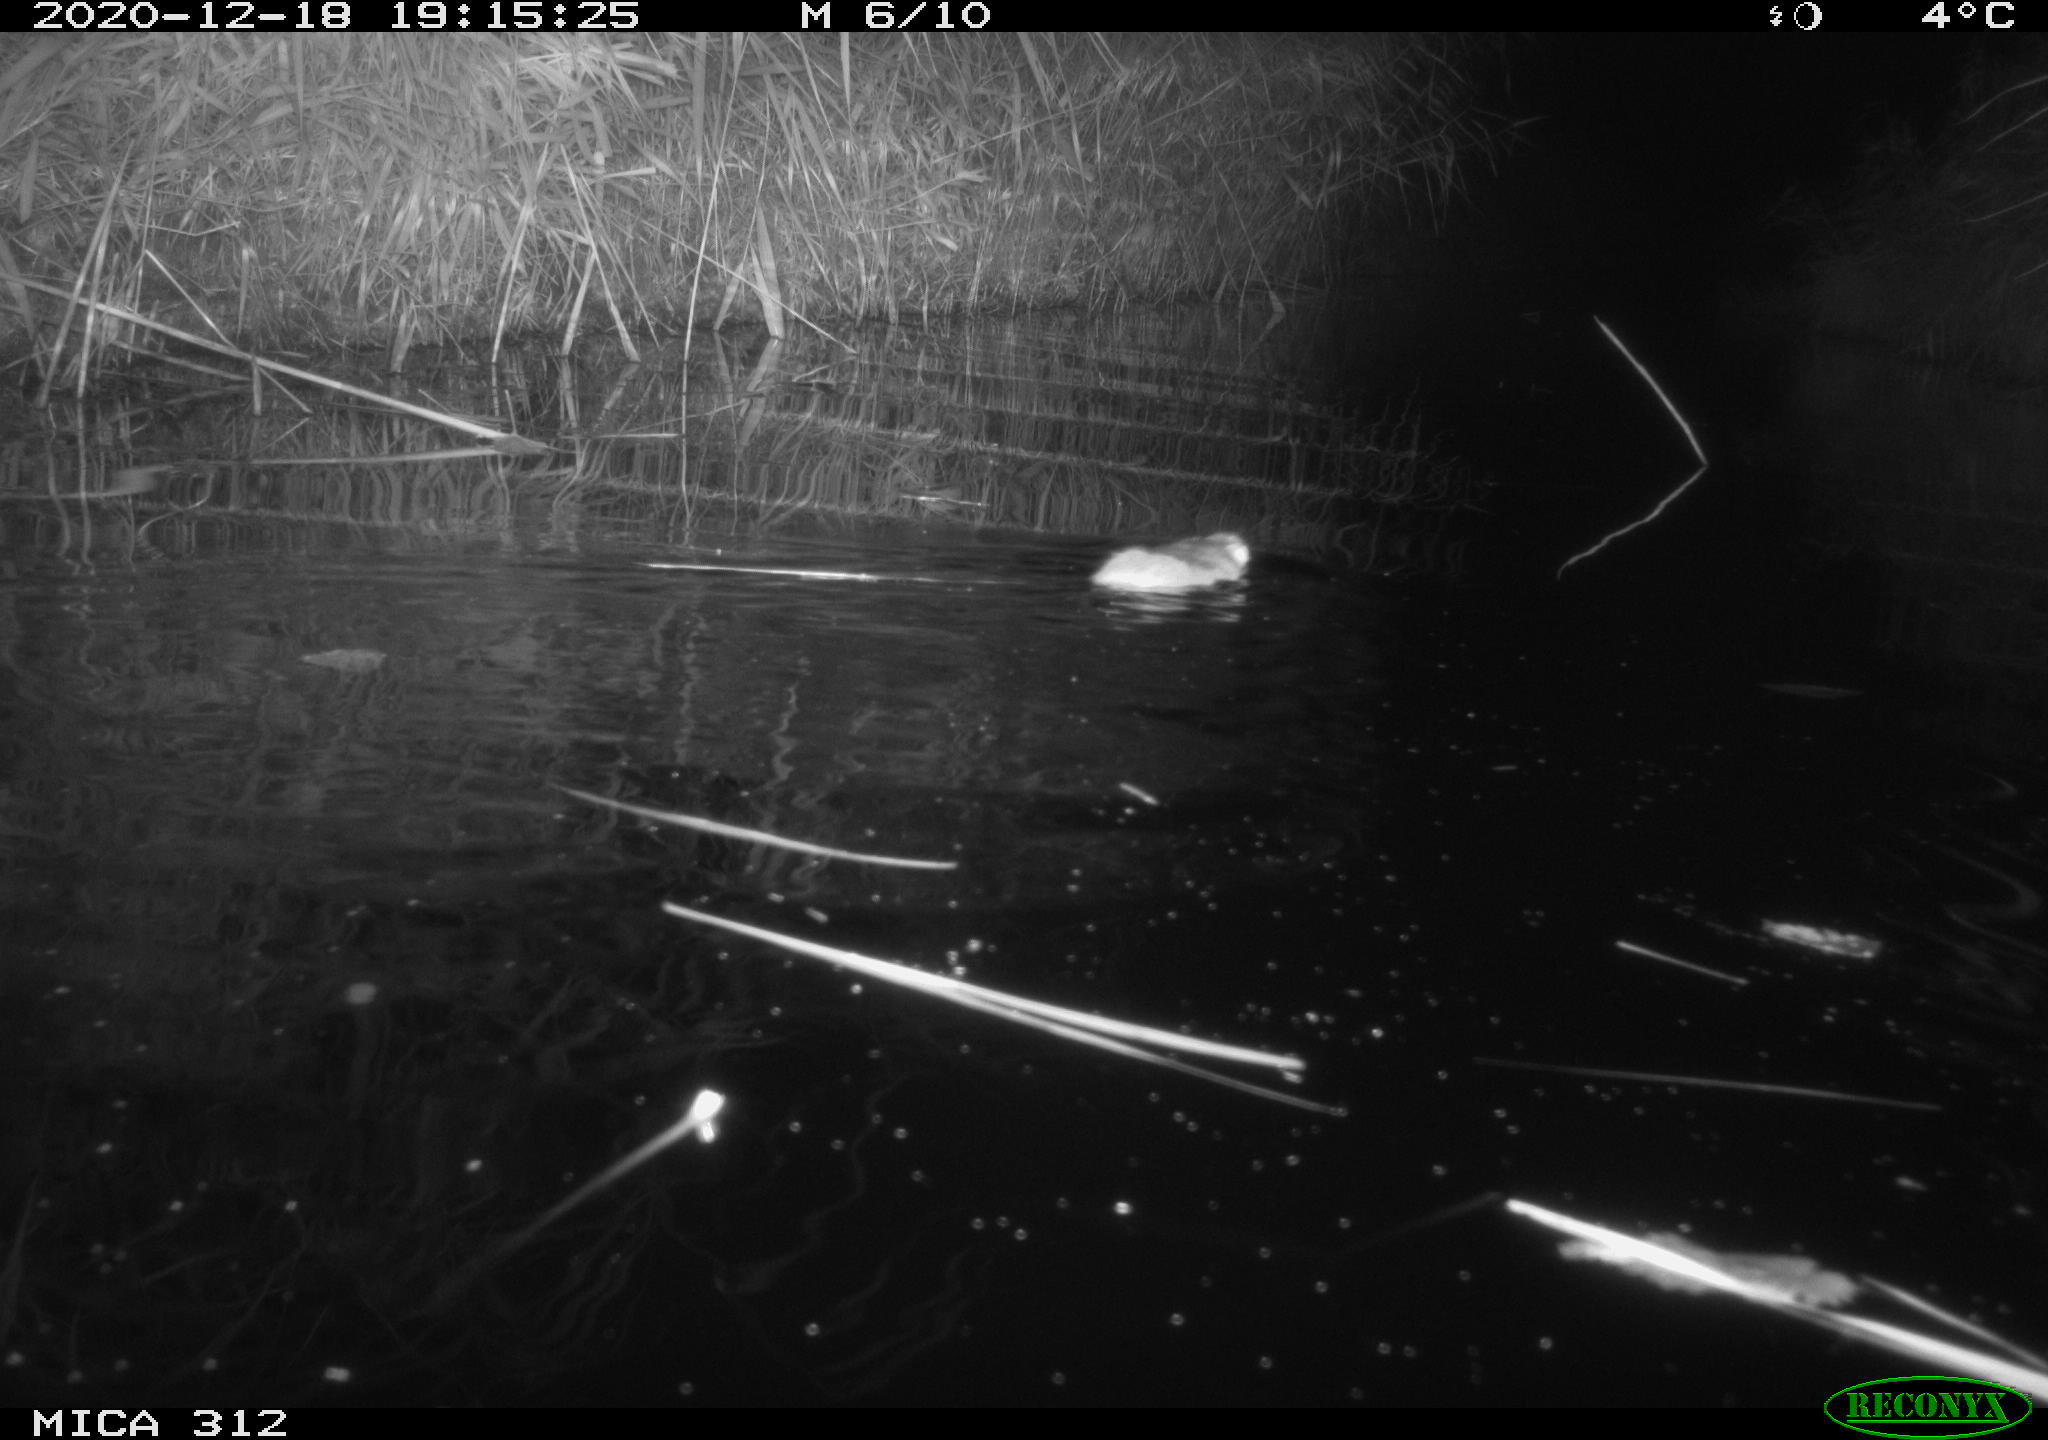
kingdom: Animalia
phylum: Chordata
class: Mammalia
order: Rodentia
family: Muridae
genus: Rattus
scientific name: Rattus norvegicus
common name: Brown rat
